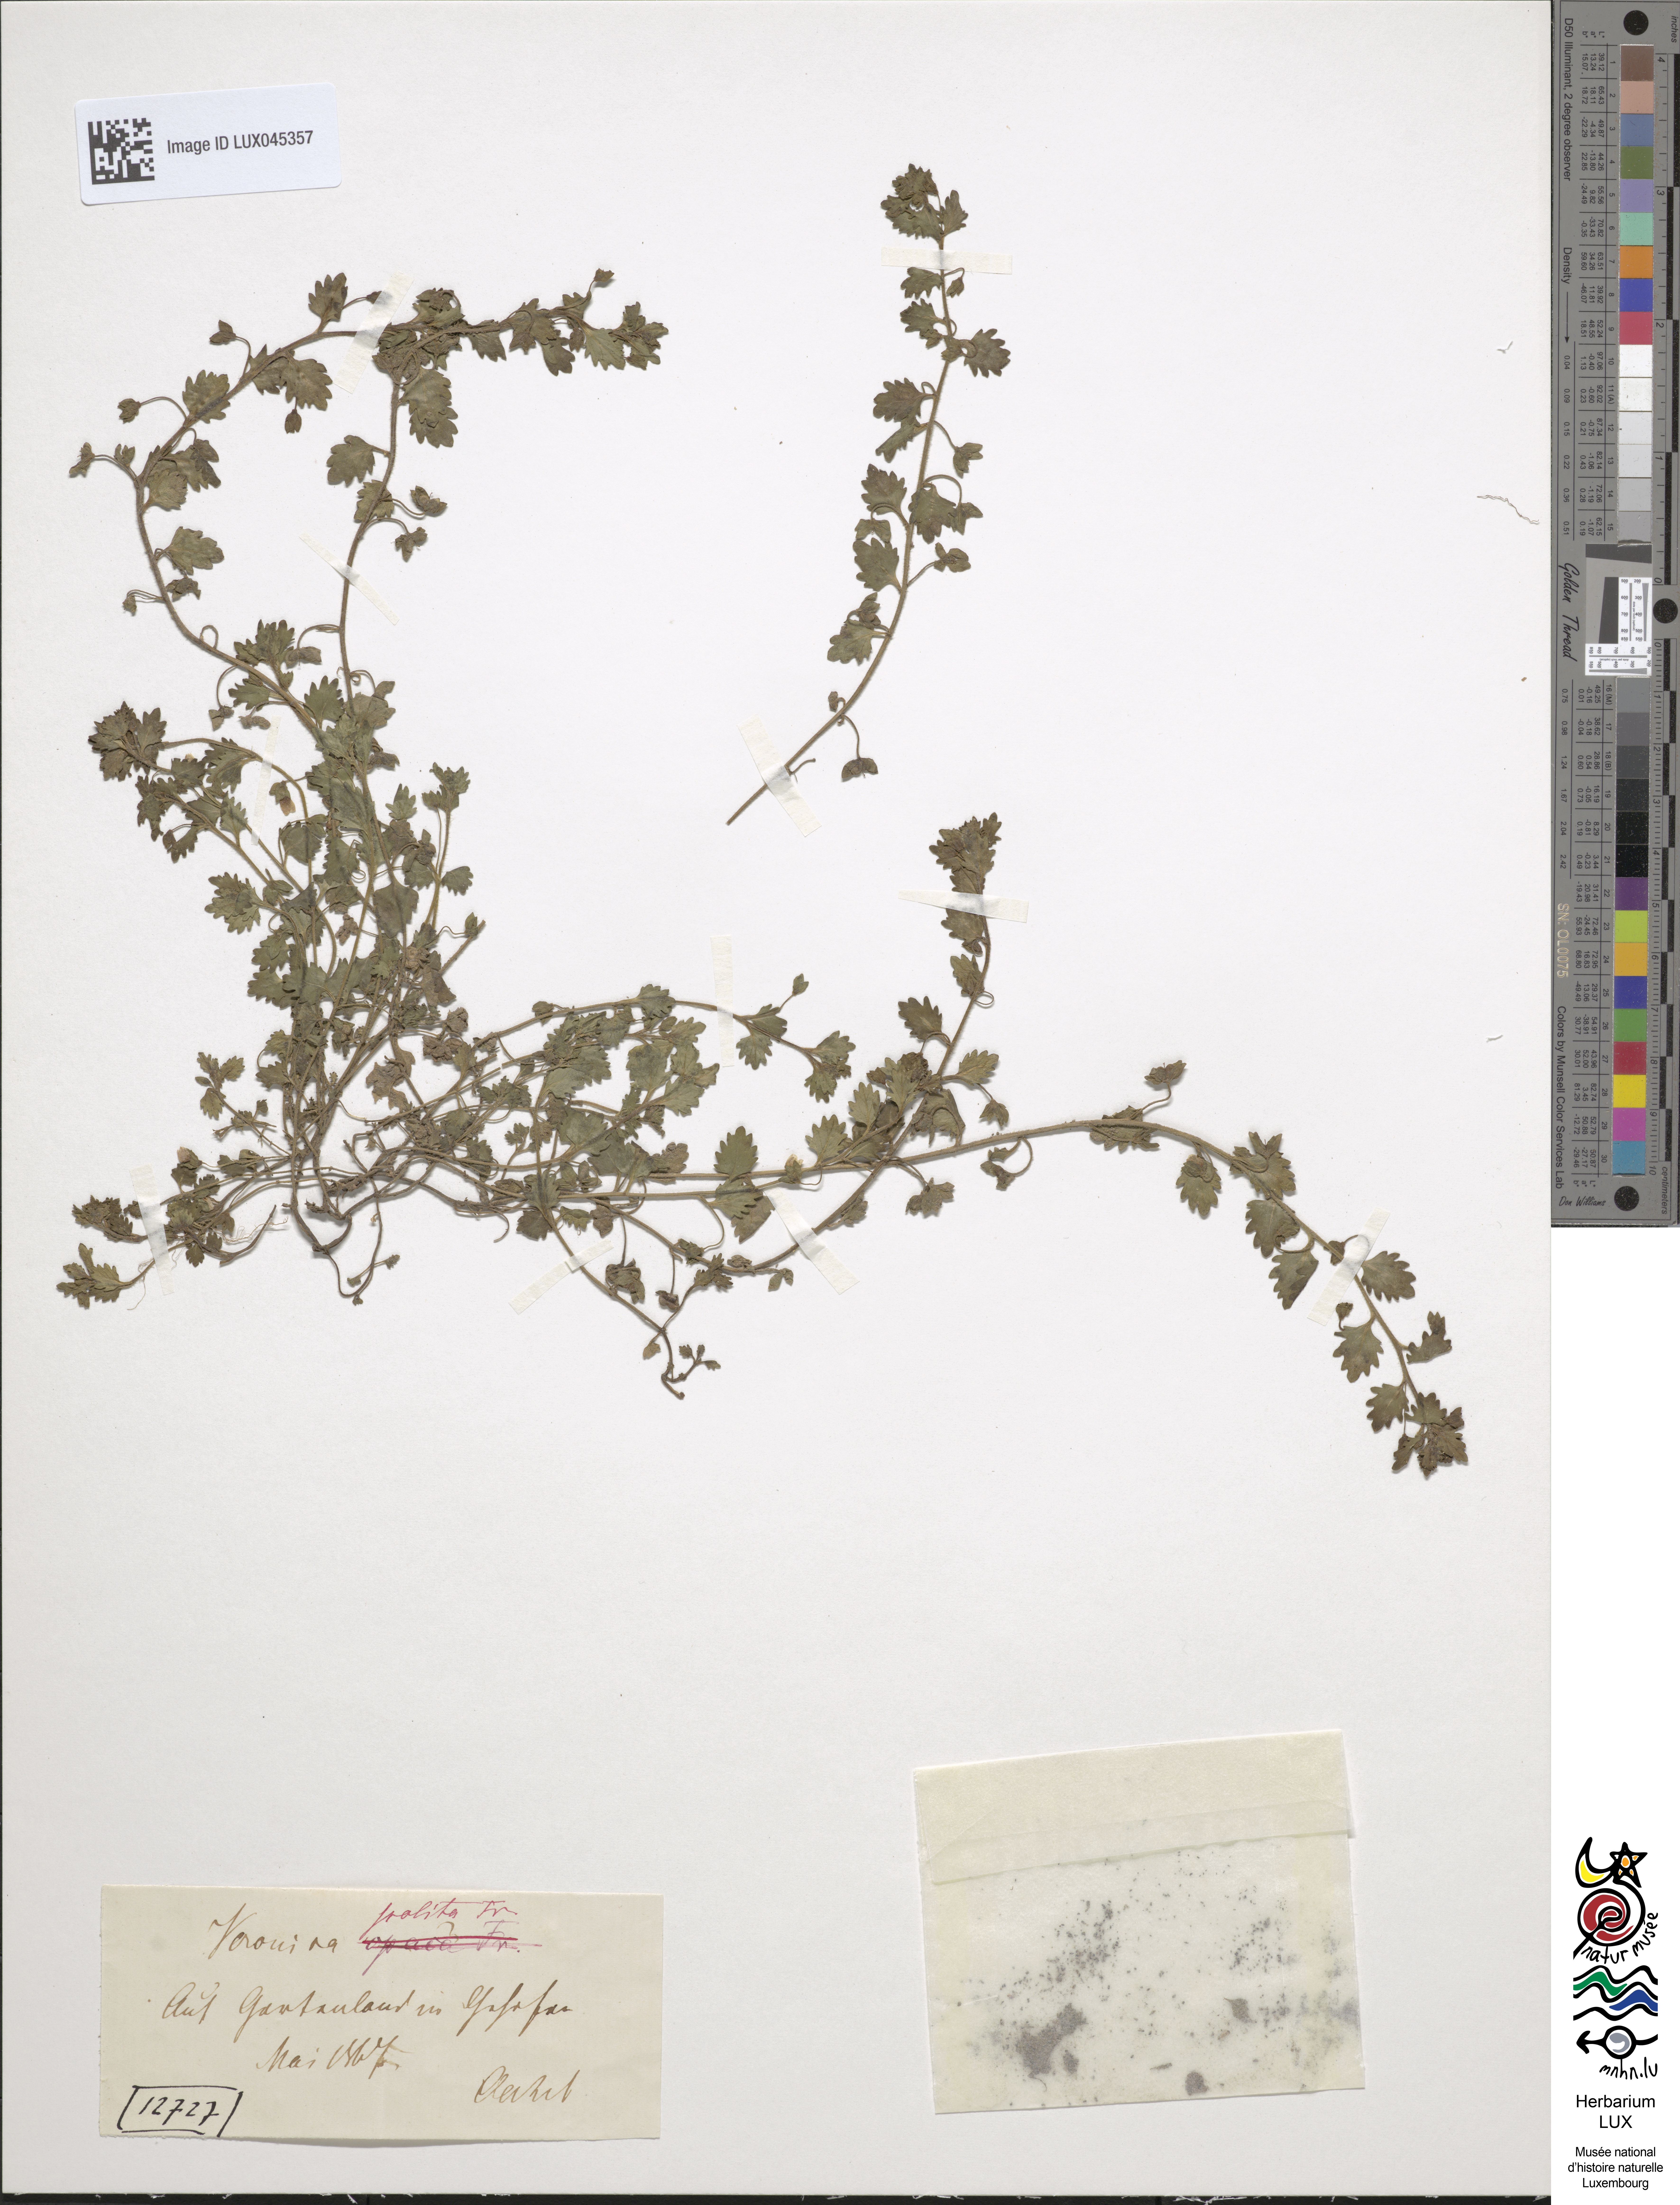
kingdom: Plantae
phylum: Tracheophyta
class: Magnoliopsida
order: Lamiales
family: Plantaginaceae
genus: Veronica
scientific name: Veronica polita
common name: Grey field-speedwell
